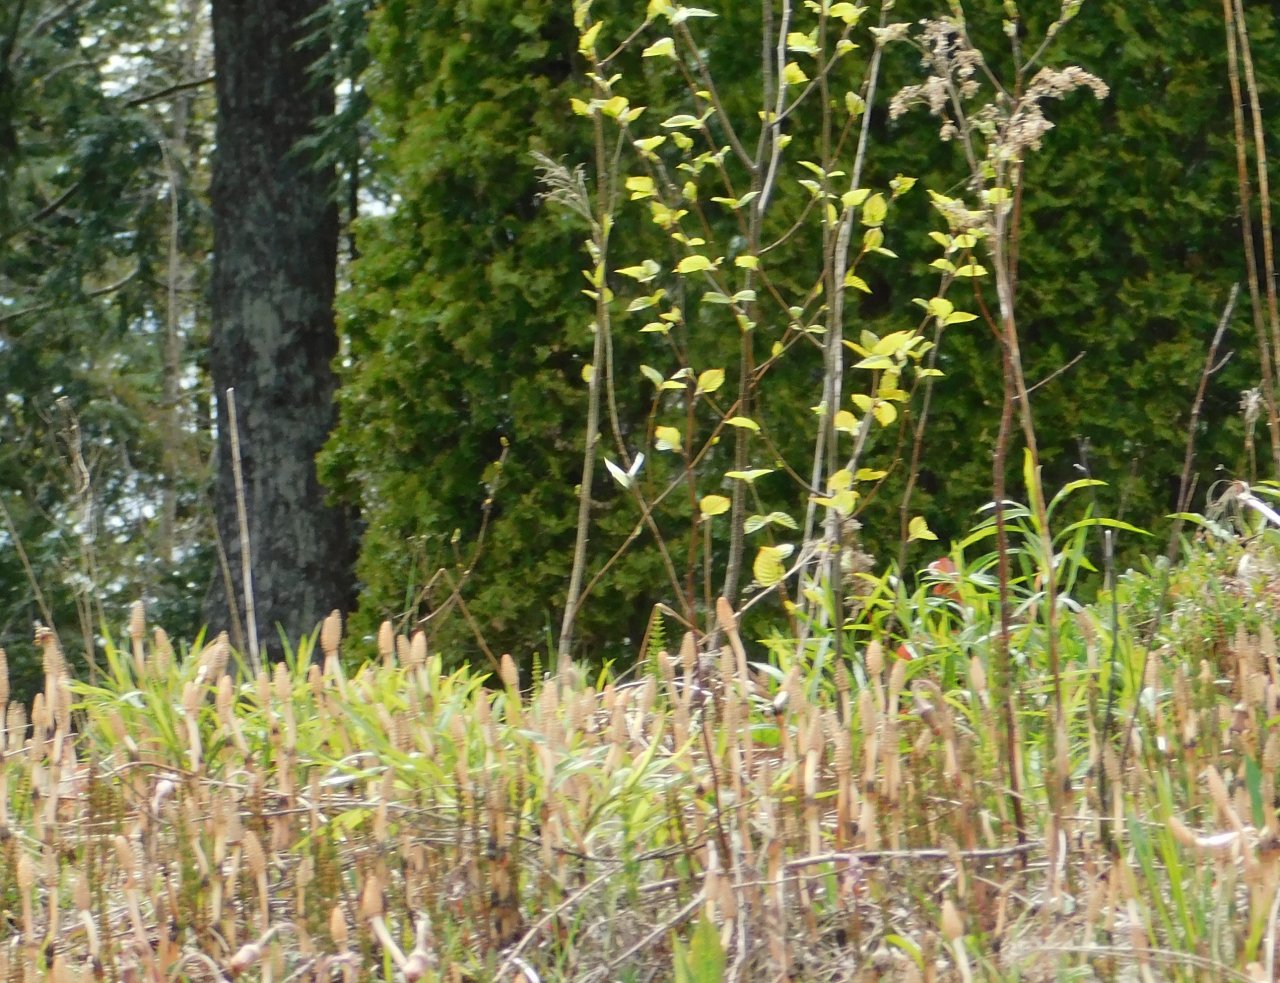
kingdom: Animalia
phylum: Arthropoda
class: Insecta
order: Lepidoptera
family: Pieridae
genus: Pieris
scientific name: Pieris
